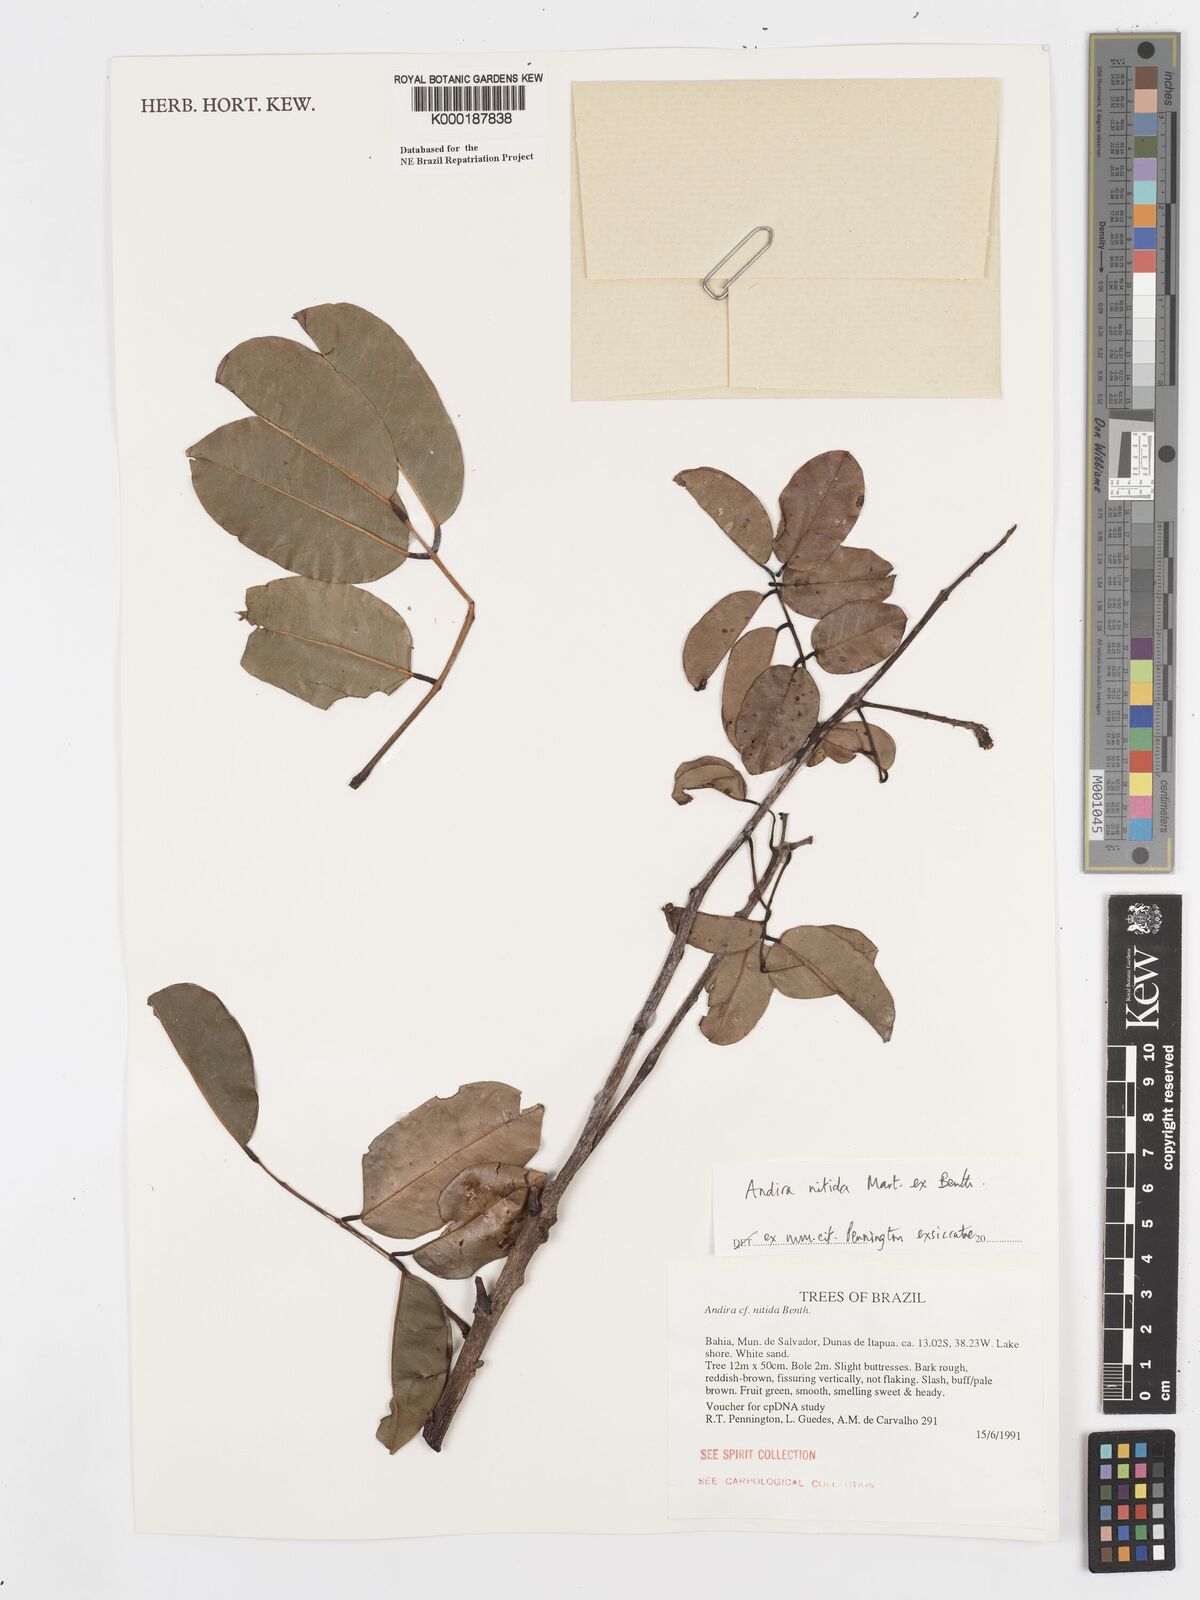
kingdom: Plantae
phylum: Tracheophyta
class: Magnoliopsida
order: Fabales
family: Fabaceae
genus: Andira
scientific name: Andira nitida
